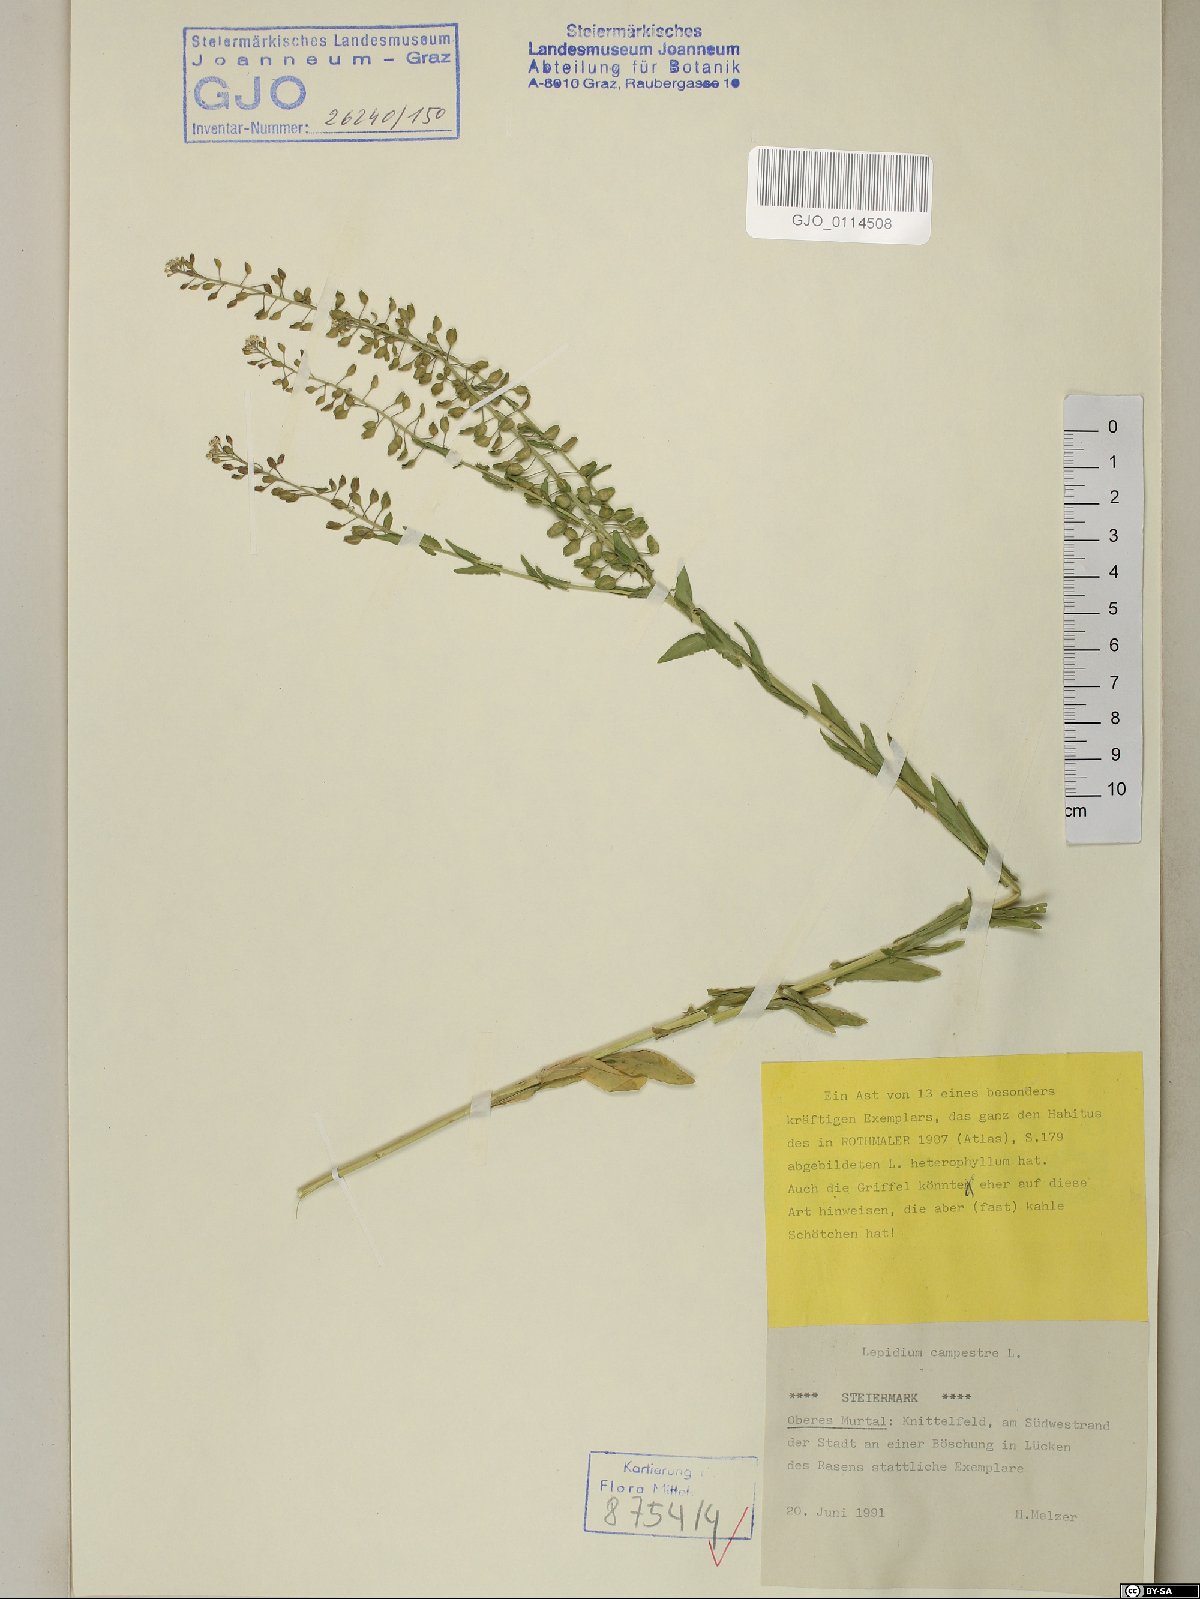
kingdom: Plantae
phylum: Tracheophyta
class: Magnoliopsida
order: Brassicales
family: Brassicaceae
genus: Lepidium
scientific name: Lepidium campestre
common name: Field pepperwort
